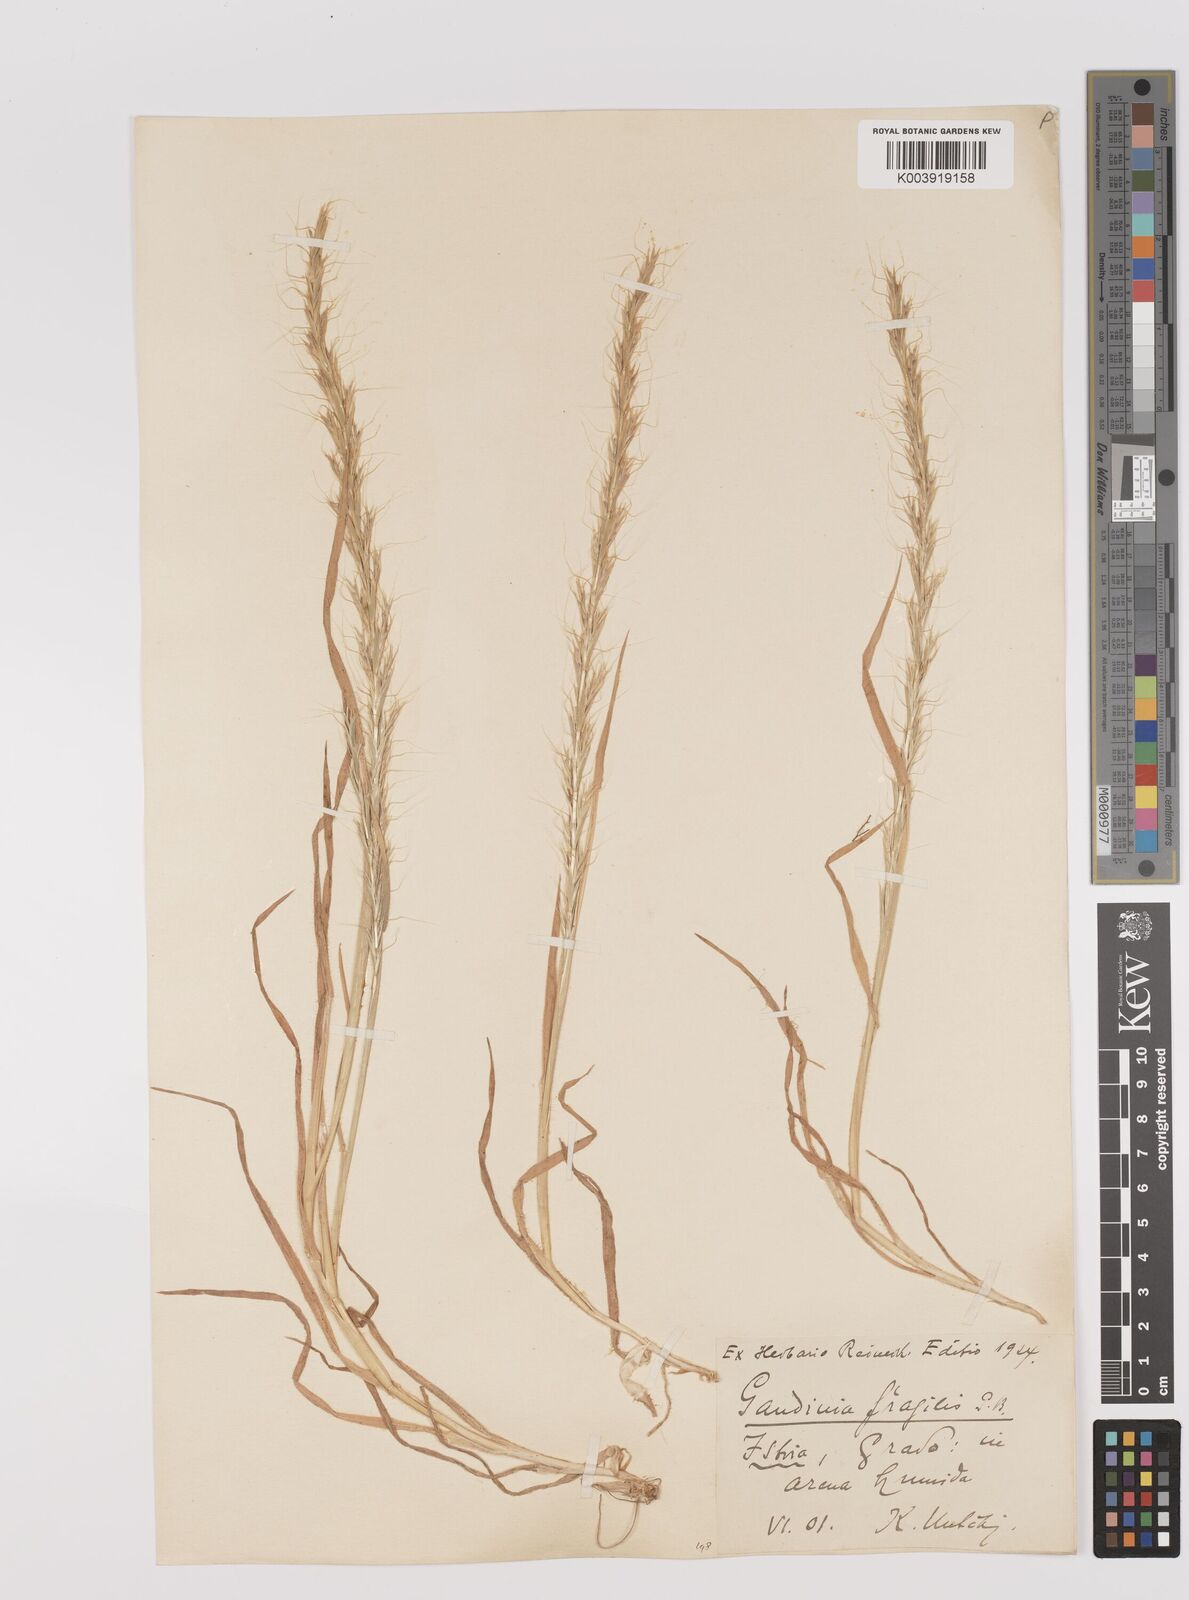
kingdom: Plantae
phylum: Tracheophyta
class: Liliopsida
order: Poales
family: Poaceae
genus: Gaudinia
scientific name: Gaudinia fragilis
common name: French oat-grass
